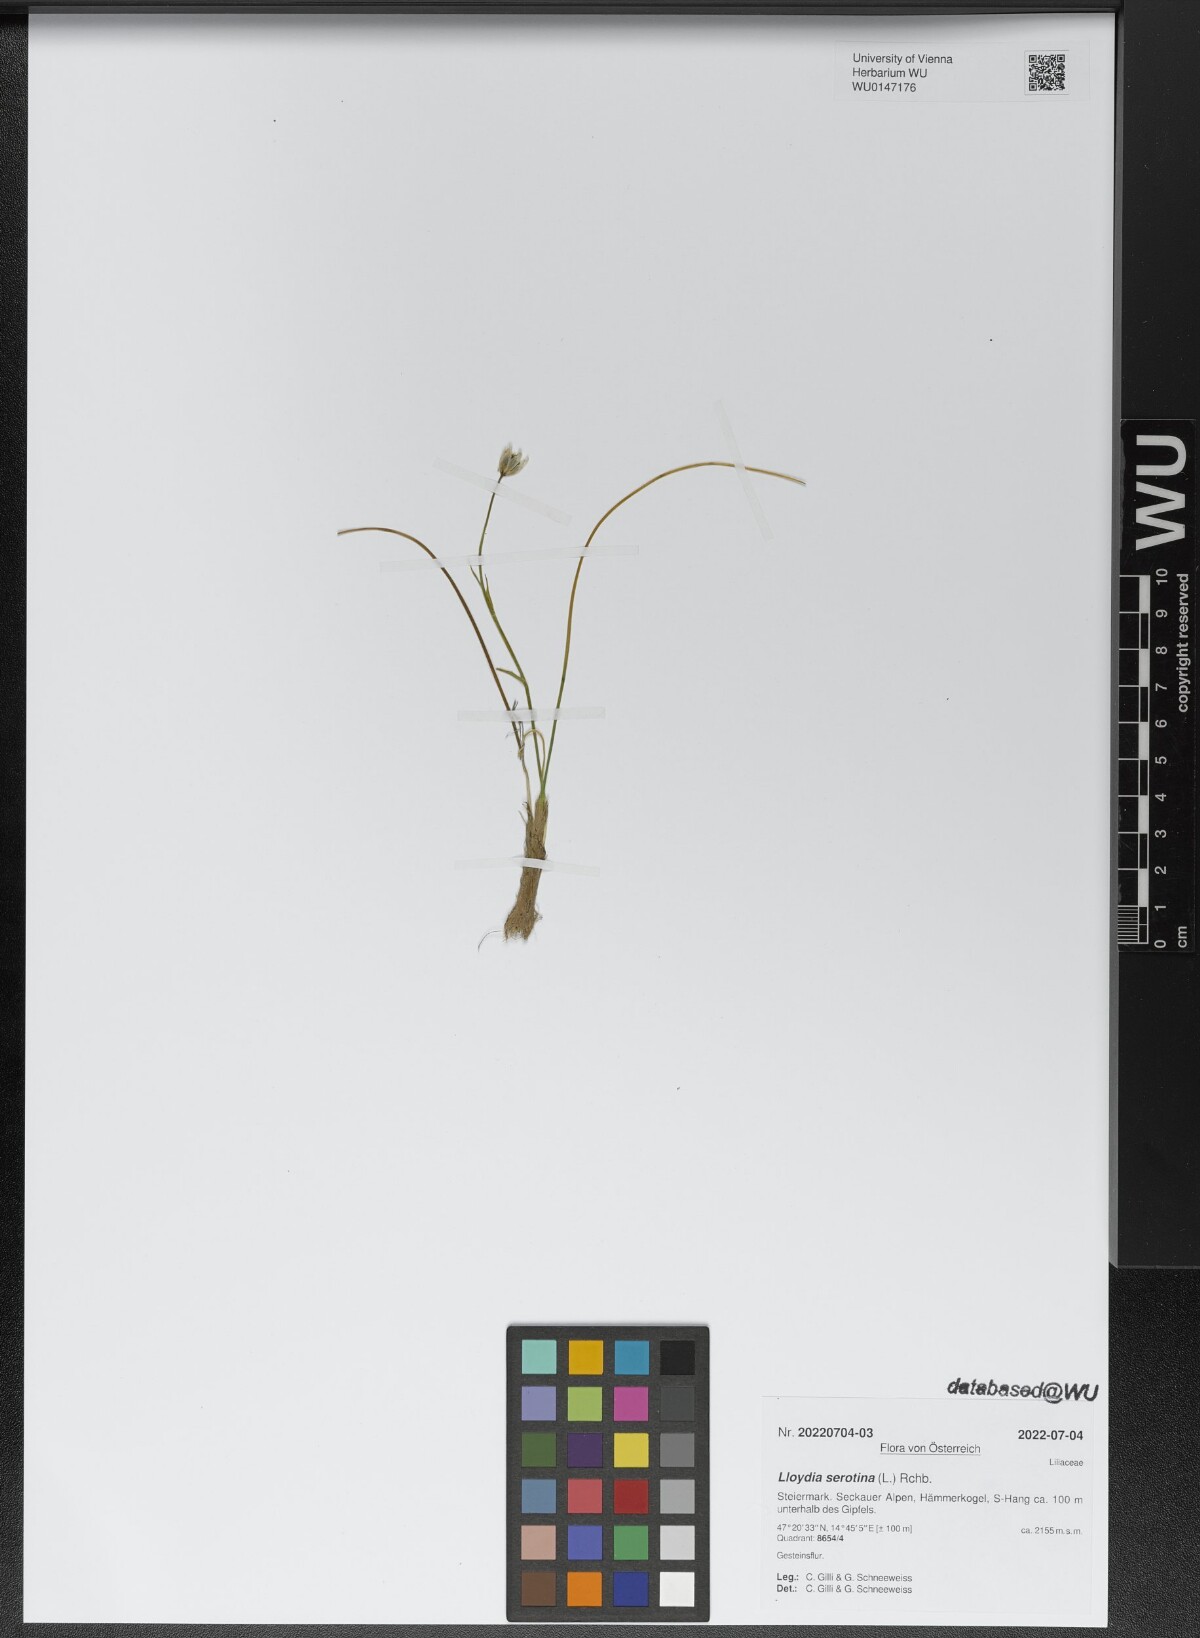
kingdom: Plantae
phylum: Tracheophyta
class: Liliopsida
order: Liliales
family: Liliaceae
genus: Gagea
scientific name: Gagea serotina
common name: Snowdon lily
